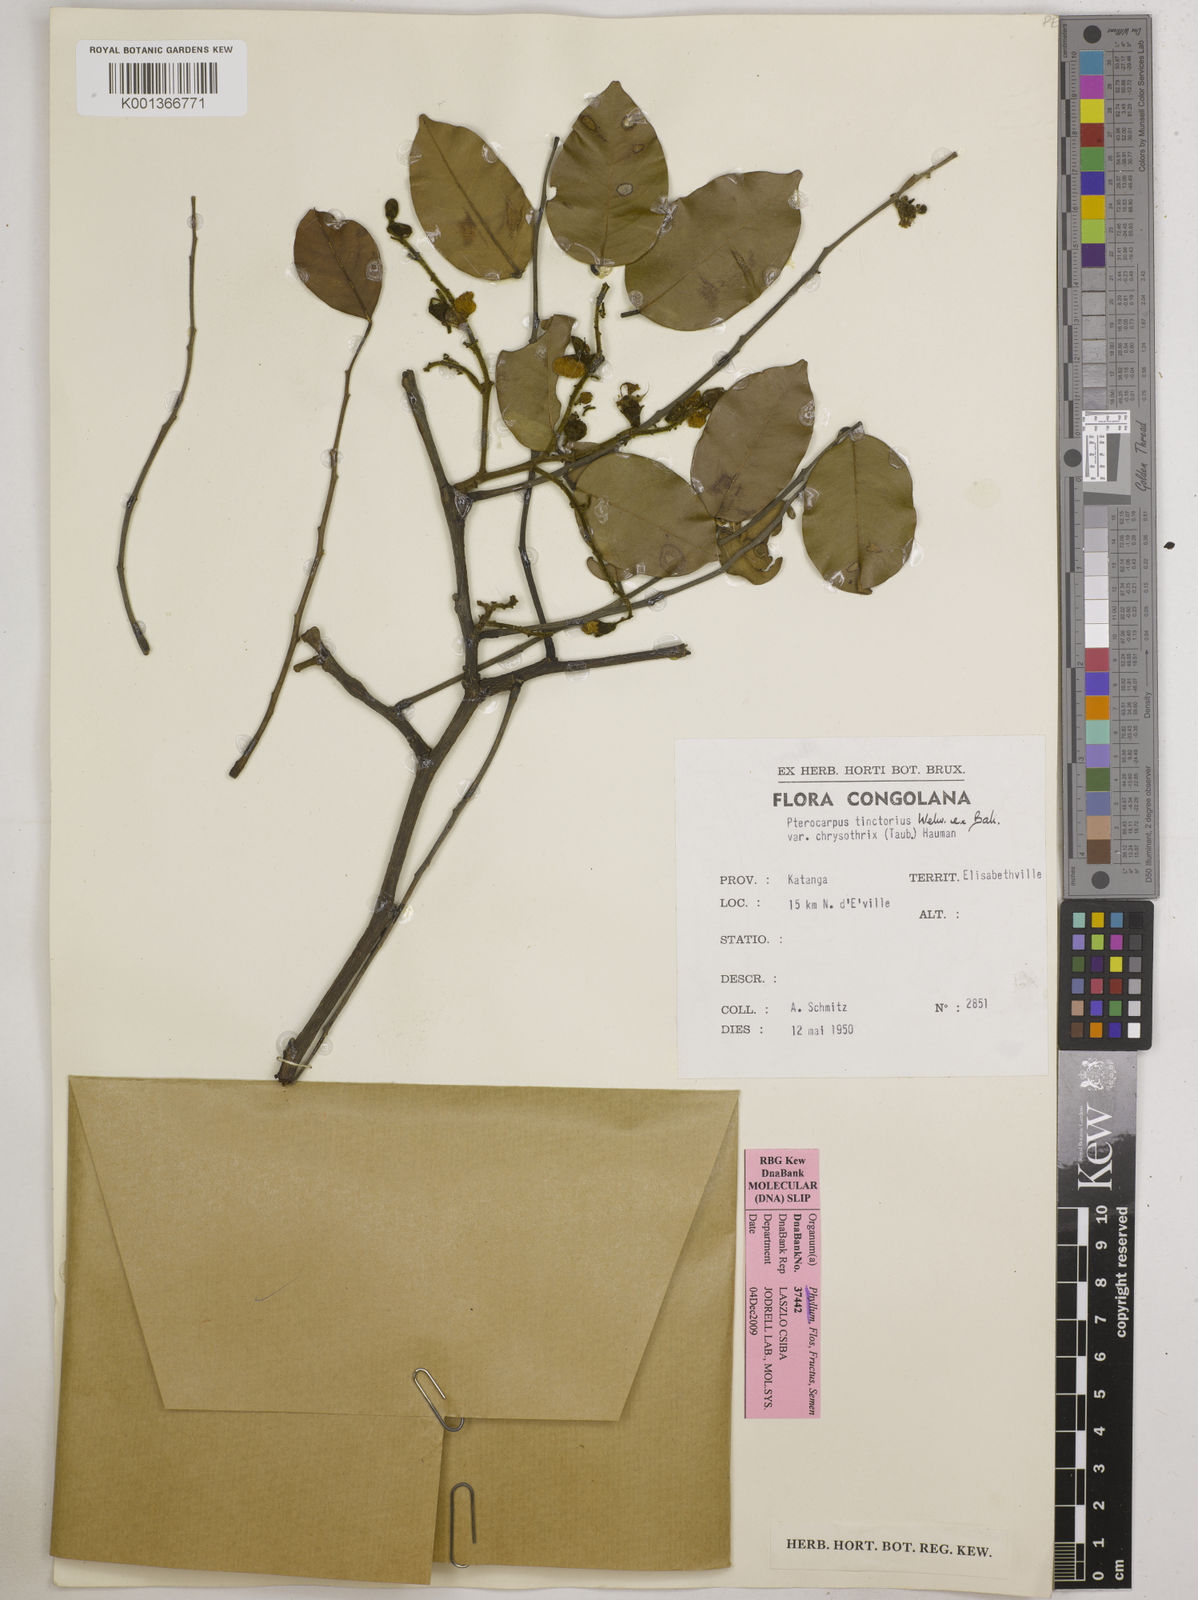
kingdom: Plantae
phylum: Tracheophyta
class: Magnoliopsida
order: Fabales
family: Fabaceae
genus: Pterocarpus
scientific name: Pterocarpus tinctorius
